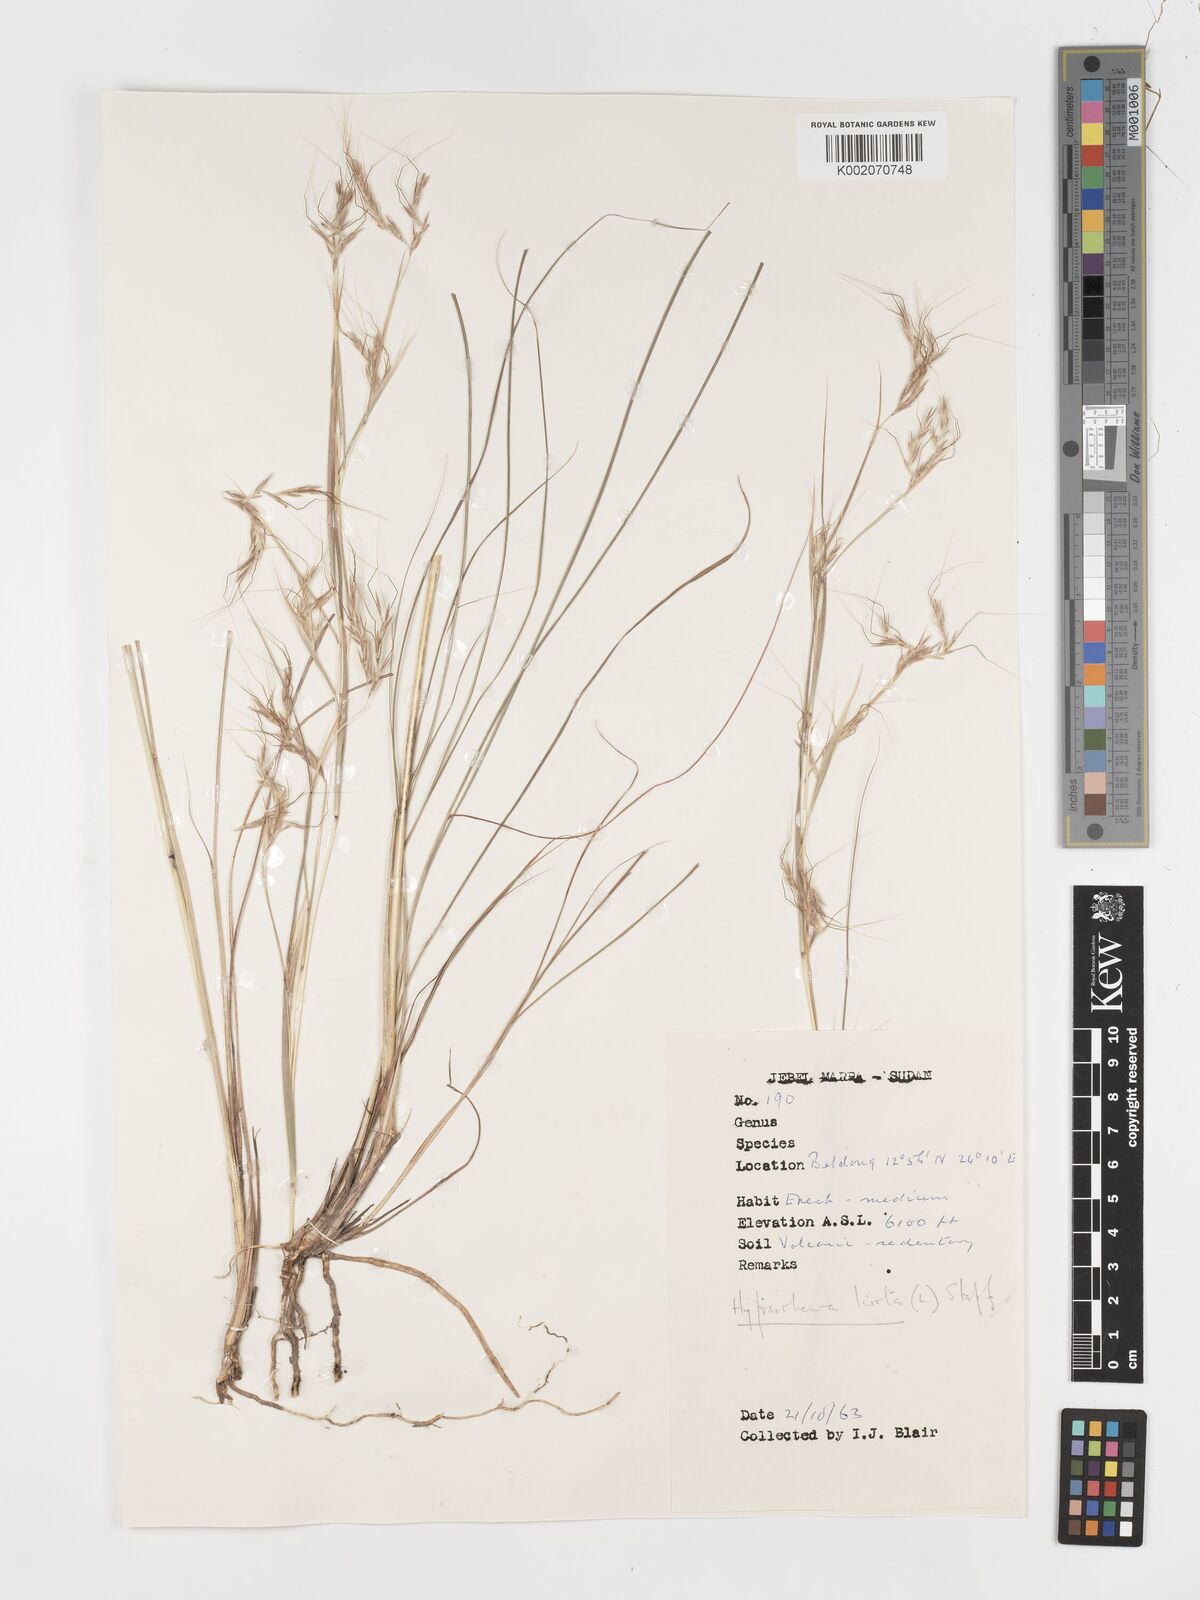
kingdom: Plantae
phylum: Tracheophyta
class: Liliopsida
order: Poales
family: Poaceae
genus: Hyparrhenia
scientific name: Hyparrhenia hirta
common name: Thatching grass
